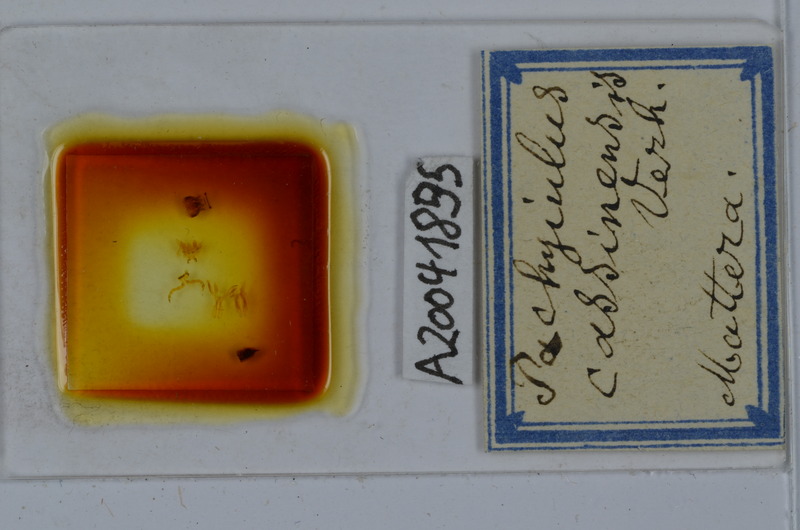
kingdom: Animalia
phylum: Arthropoda
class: Diplopoda
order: Julida
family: Julidae
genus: Pachyiulus
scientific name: Pachyiulus cassinensis
